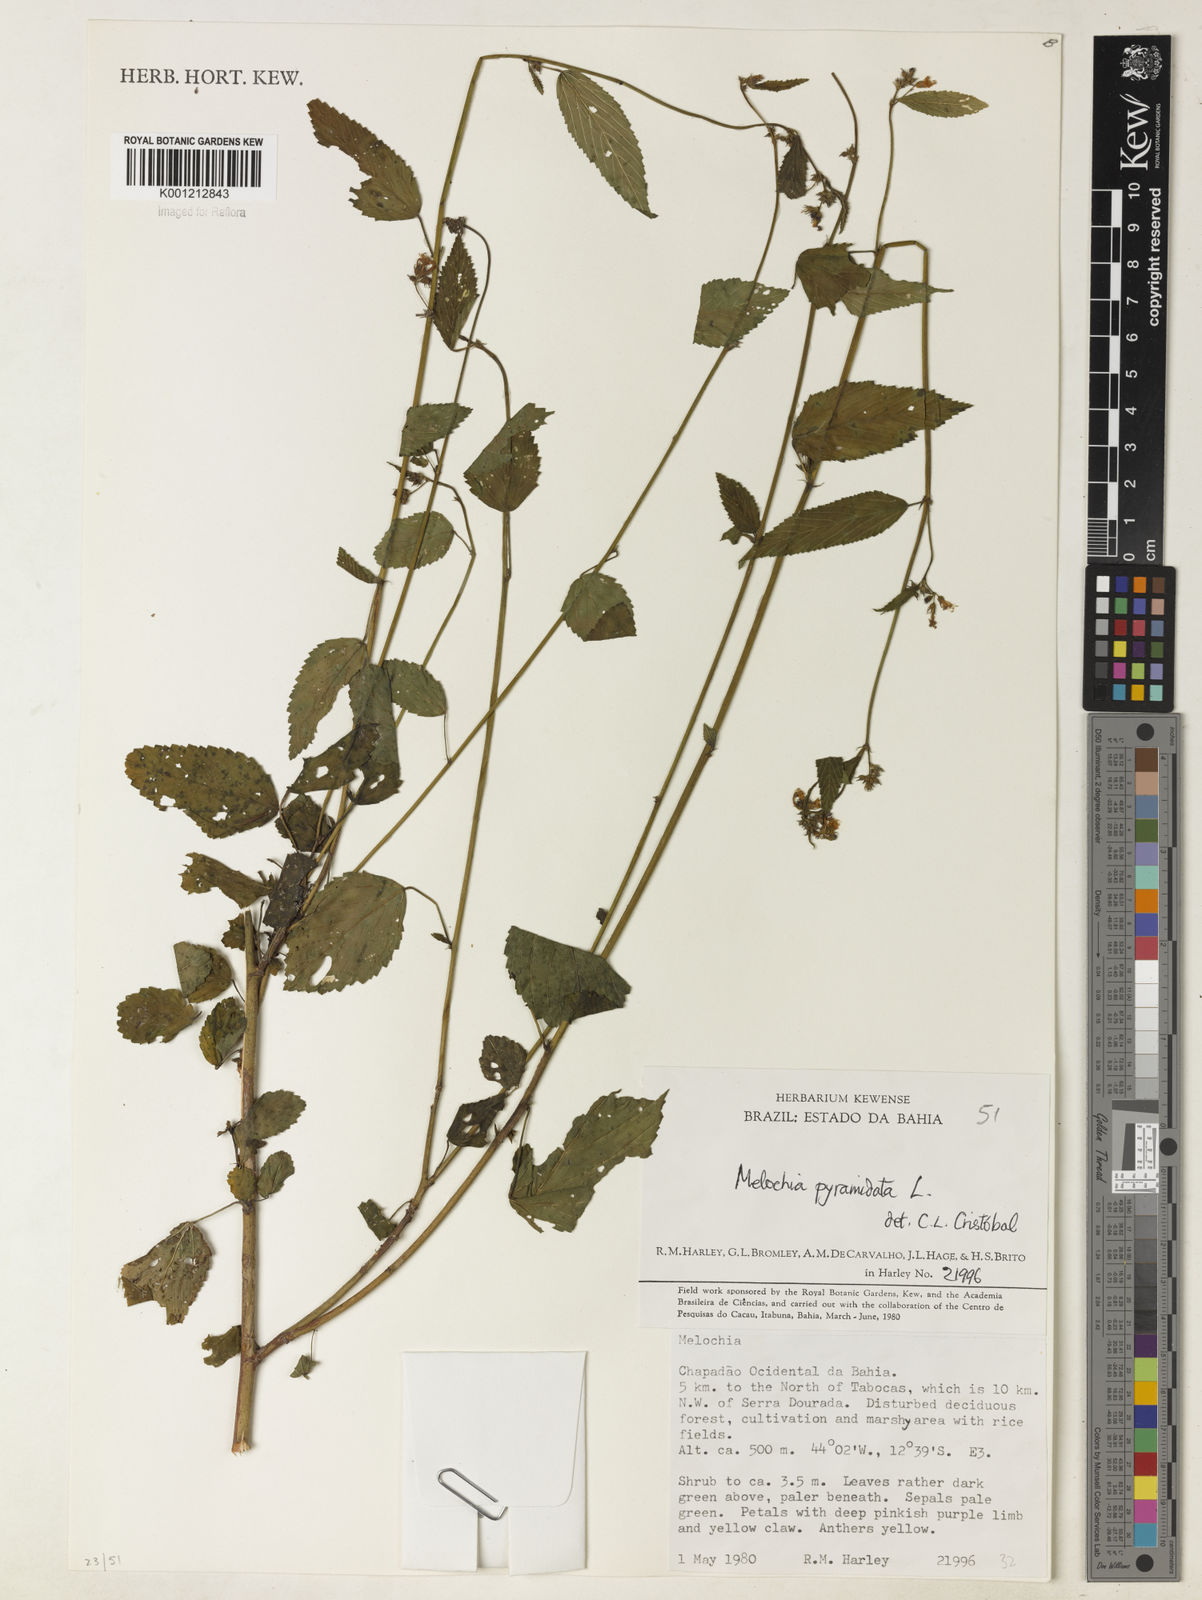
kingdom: Plantae
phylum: Tracheophyta
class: Magnoliopsida
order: Malvales
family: Malvaceae
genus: Melochia
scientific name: Melochia pyramidata
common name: Pyramidflower
